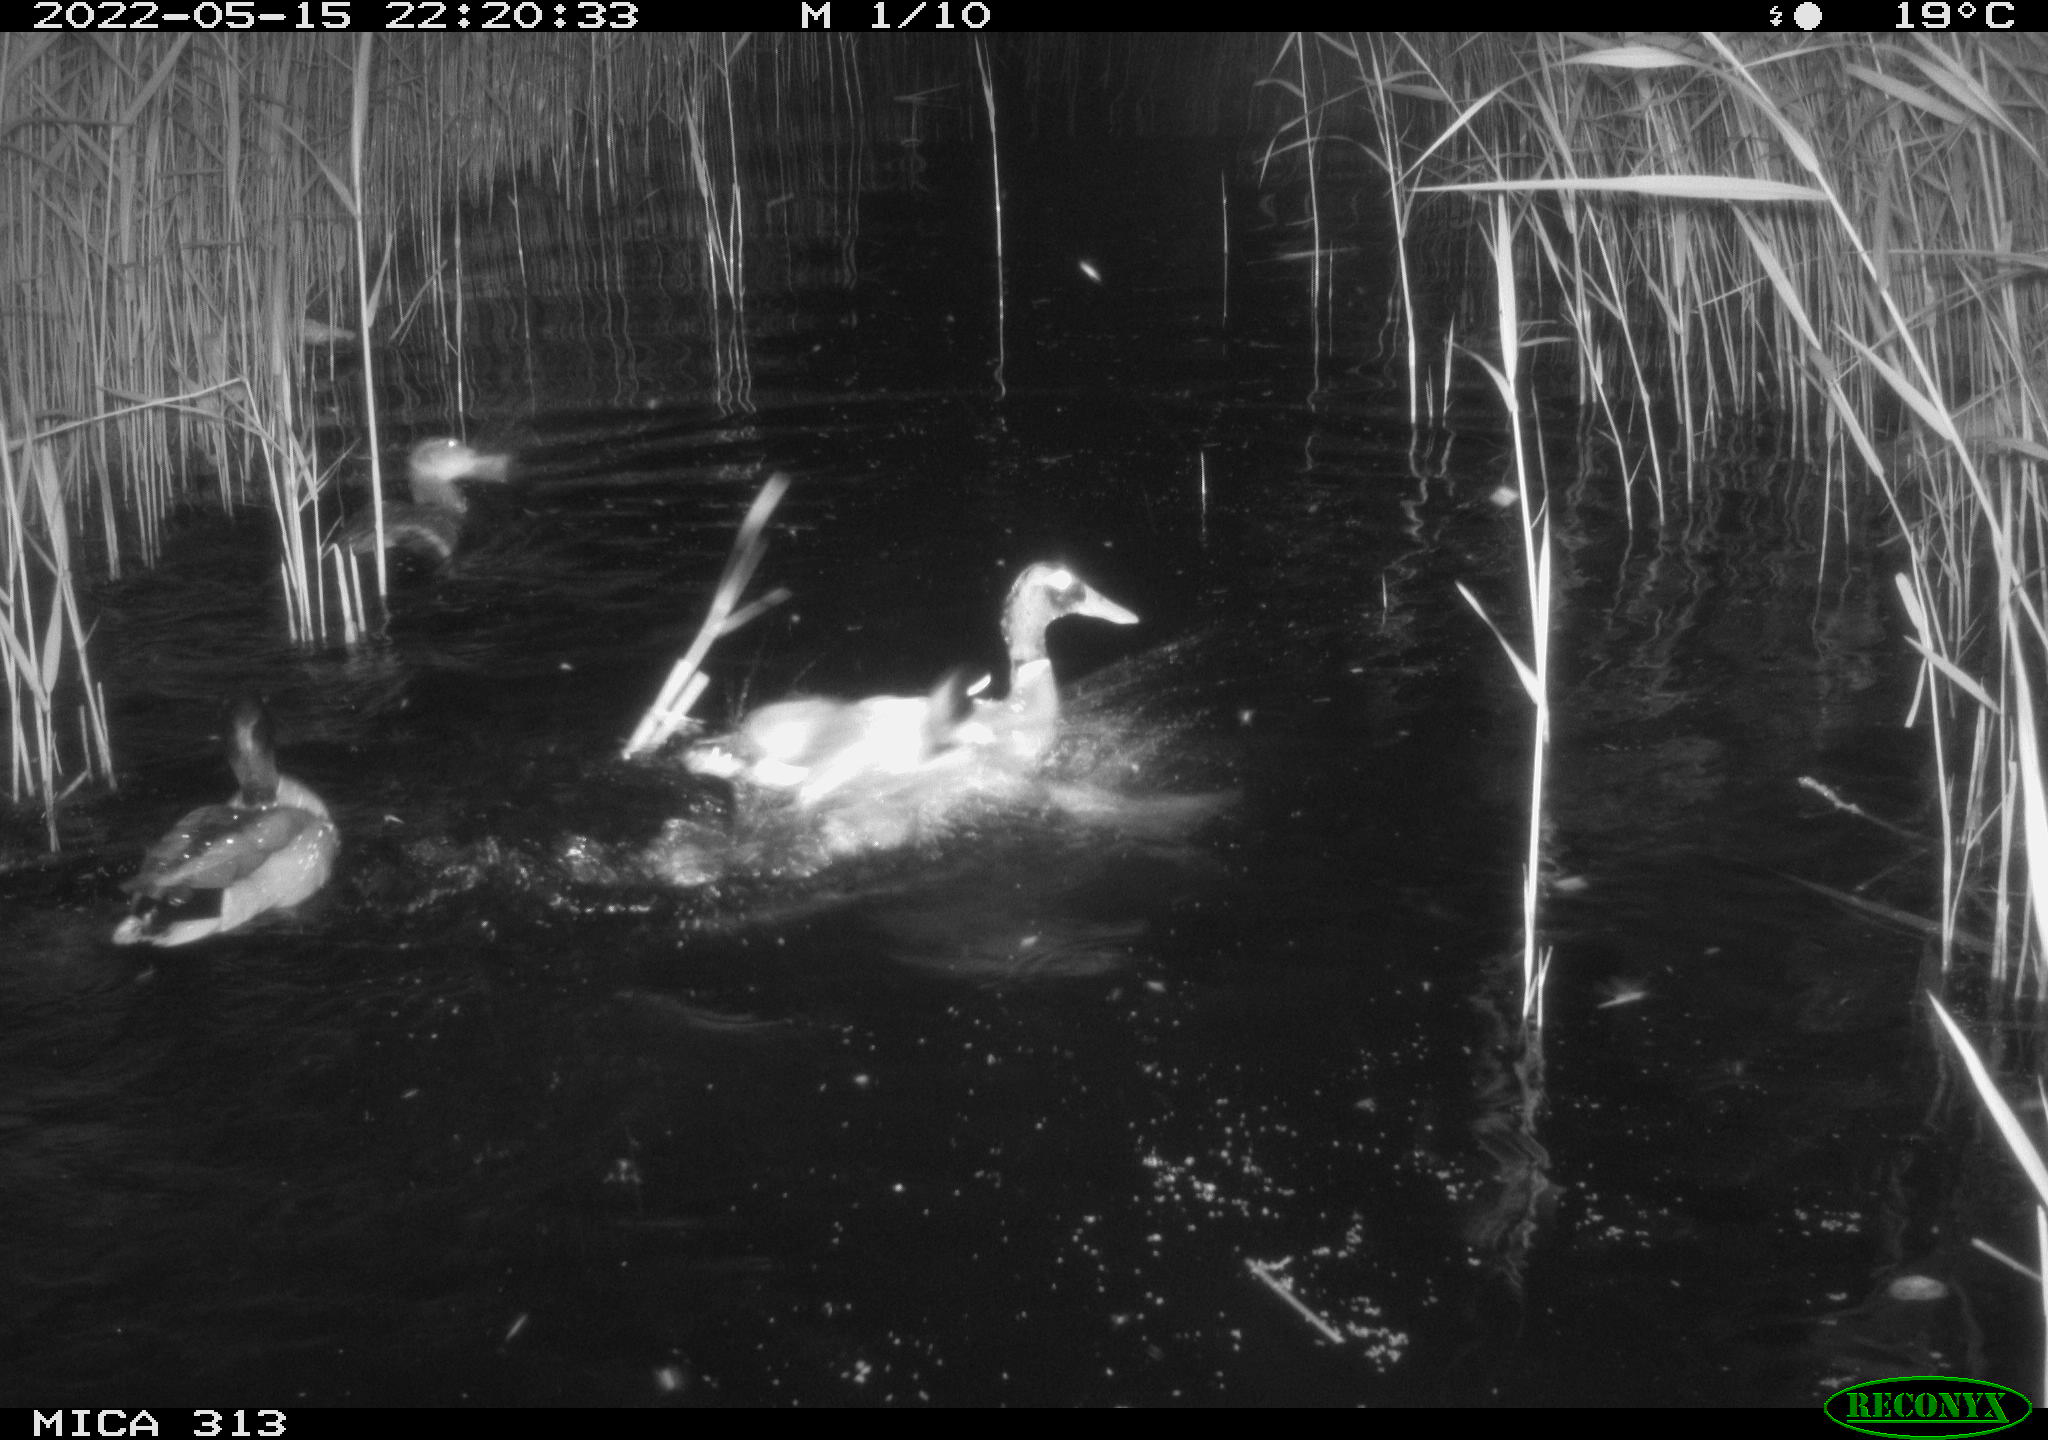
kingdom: Animalia
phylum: Chordata
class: Aves
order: Anseriformes
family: Anatidae
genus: Anas
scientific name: Anas platyrhynchos
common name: Mallard
